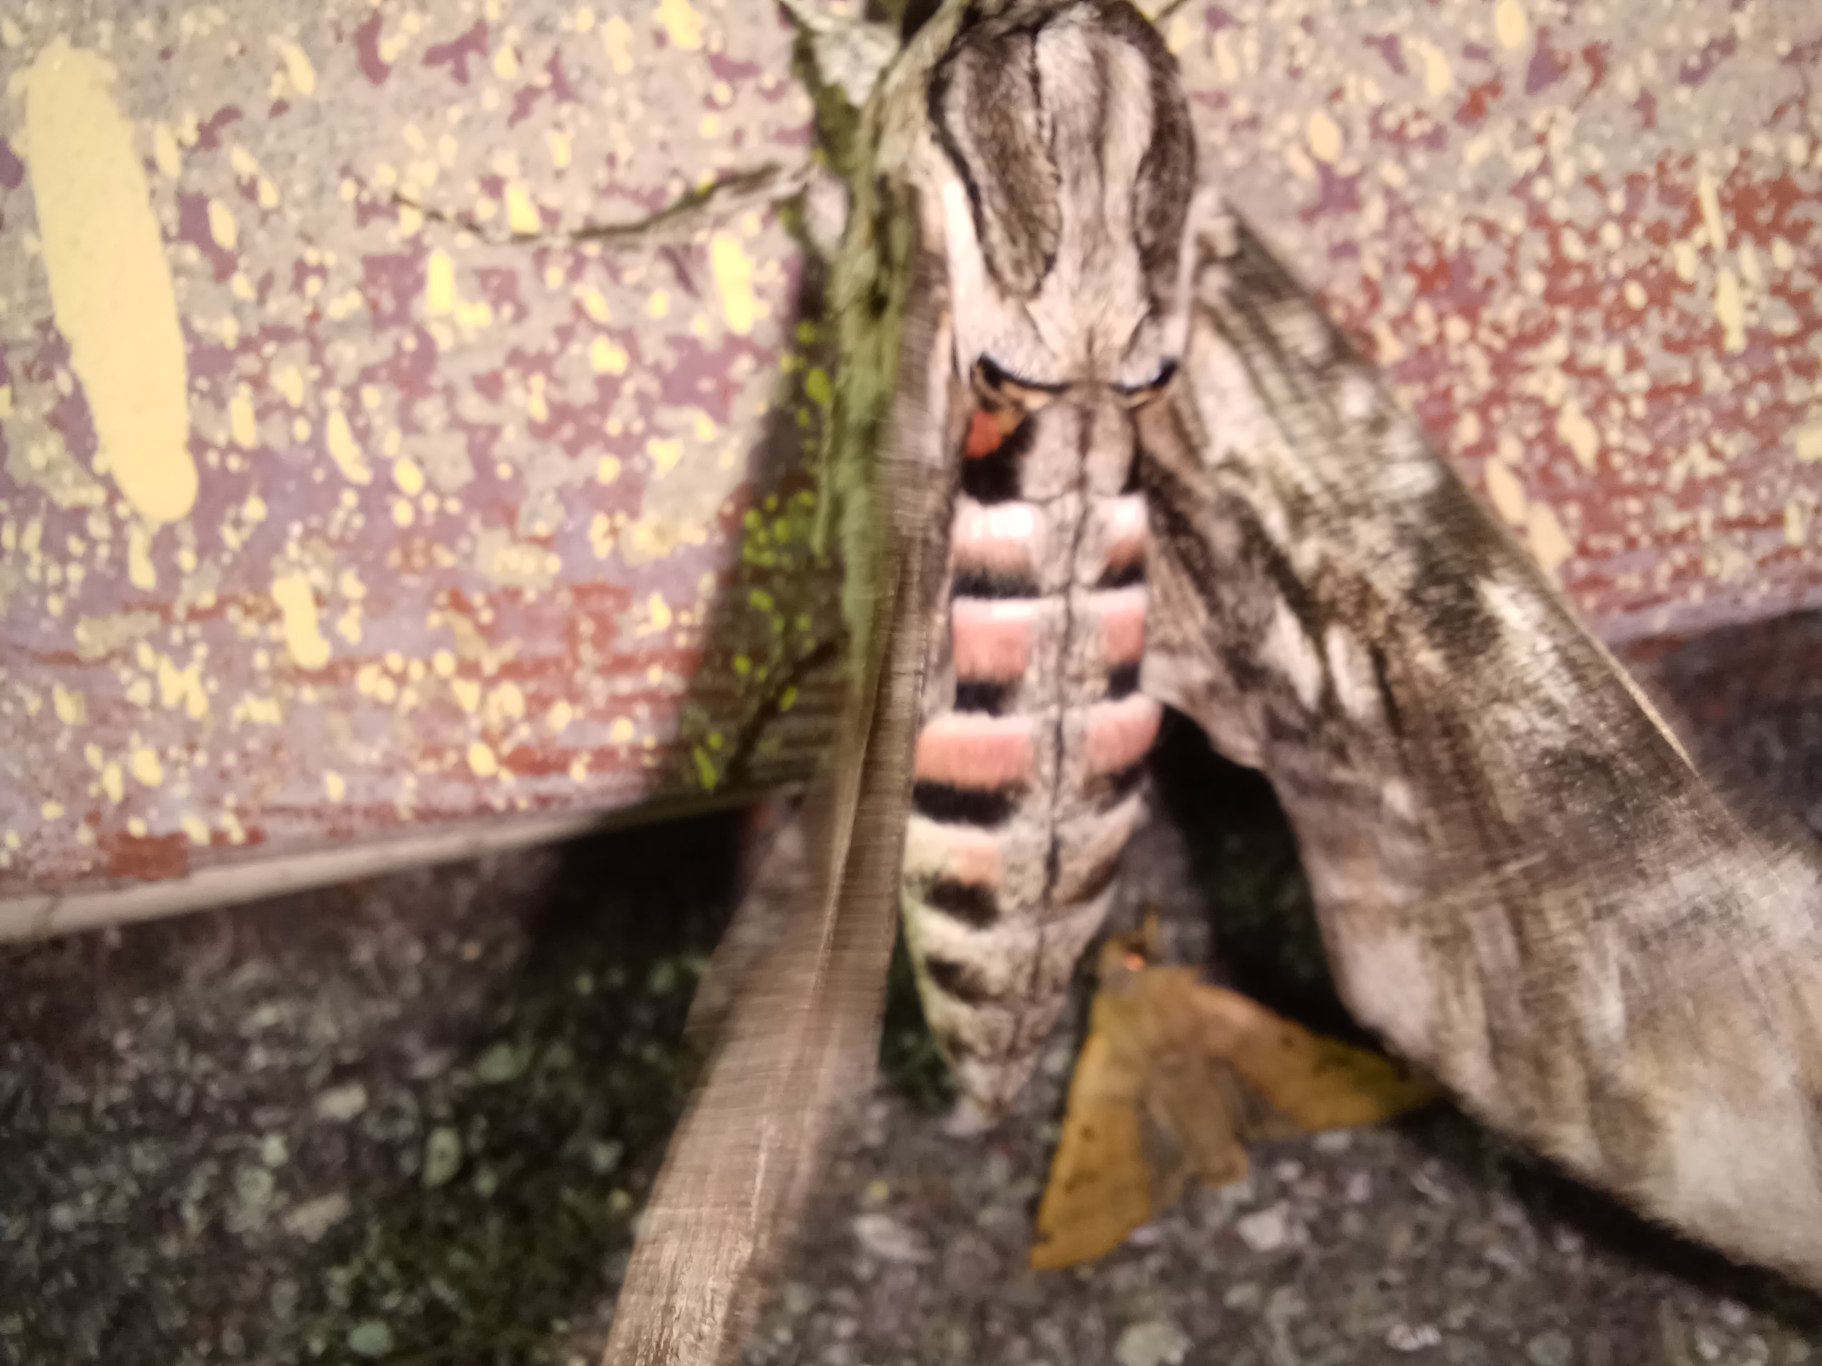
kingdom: Animalia
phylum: Arthropoda
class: Insecta
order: Lepidoptera
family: Sphingidae
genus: Agrius
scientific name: Agrius convolvuli
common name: Snerlesværmer
